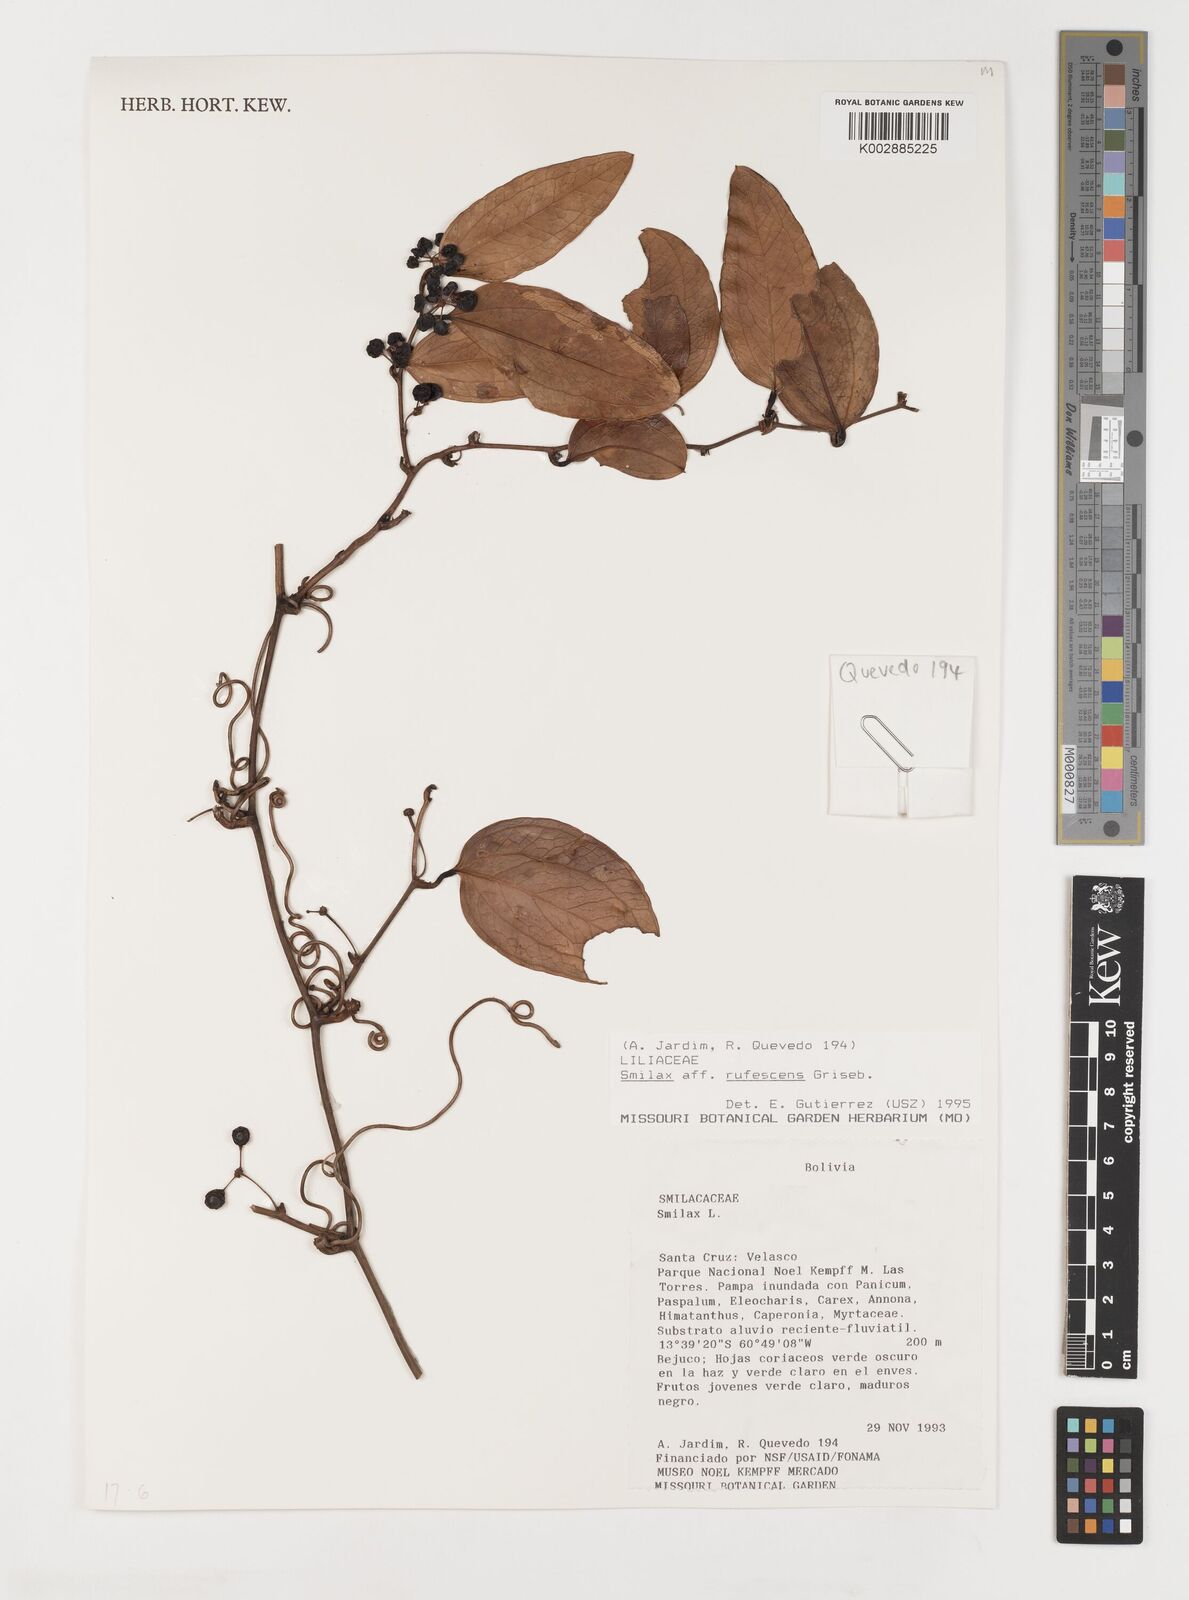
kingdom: Plantae
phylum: Tracheophyta
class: Liliopsida
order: Liliales
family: Smilacaceae
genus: Smilax
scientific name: Smilax rufescens
